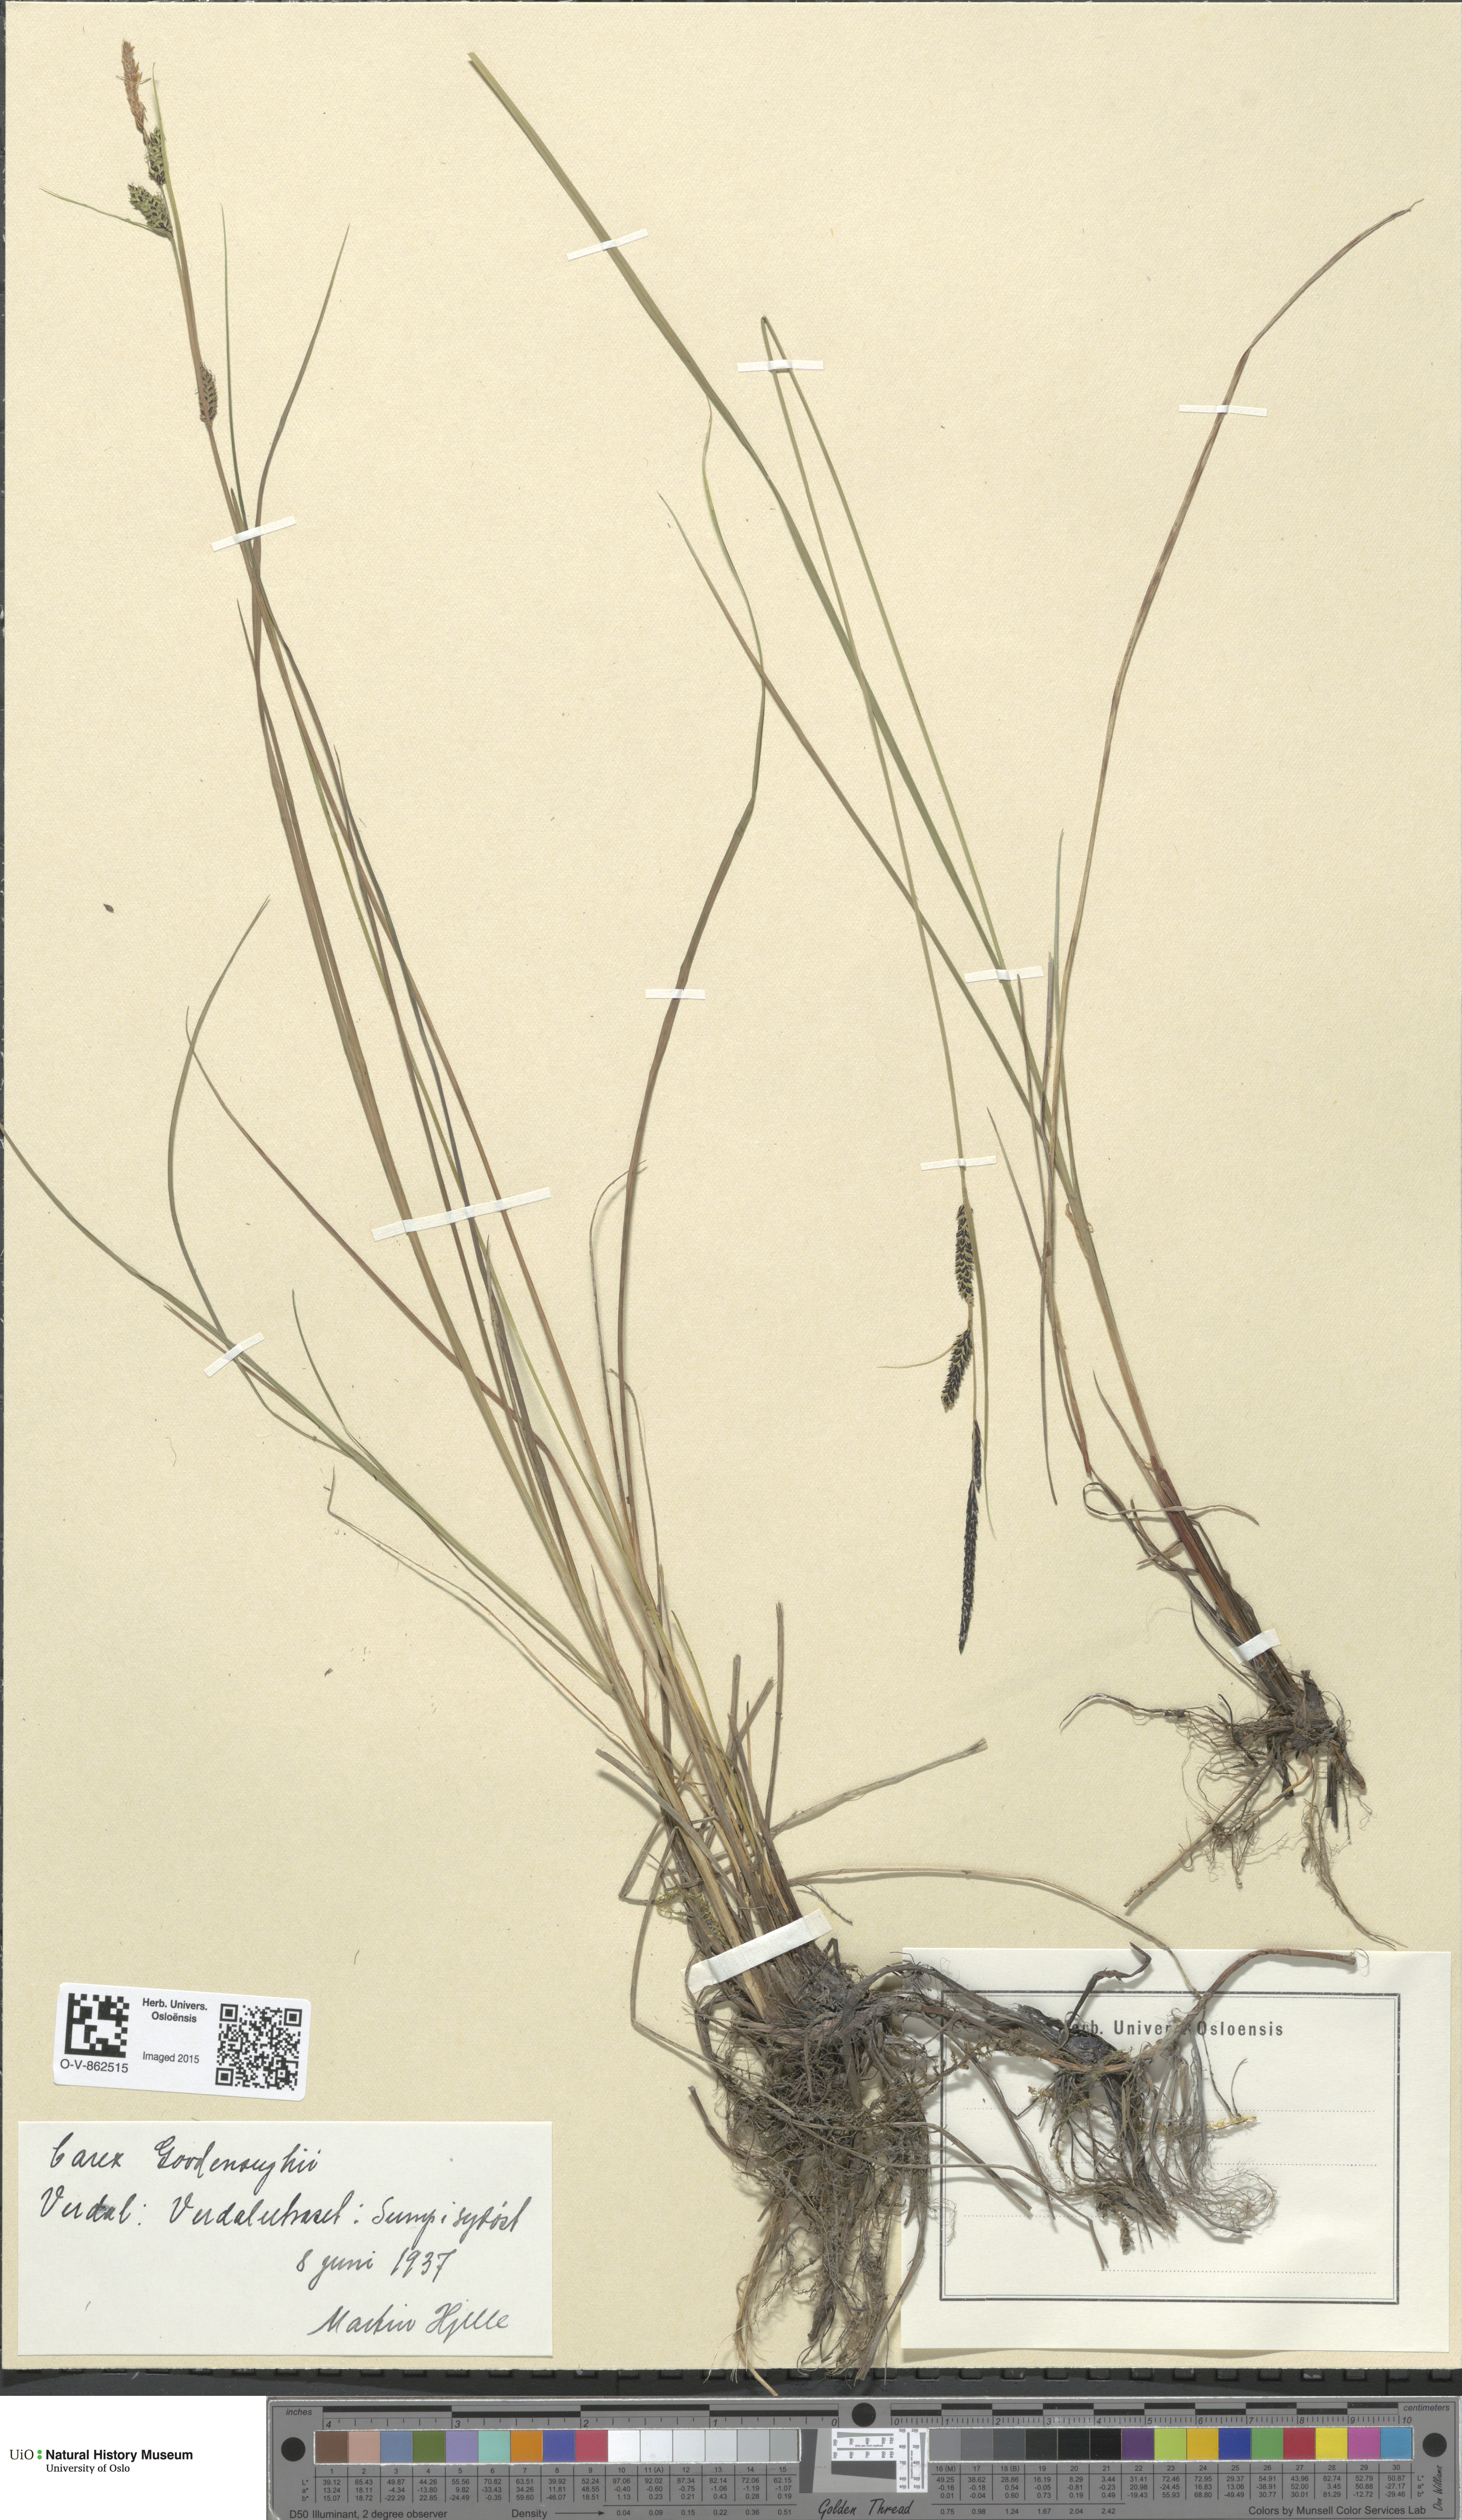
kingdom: Plantae
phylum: Tracheophyta
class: Liliopsida
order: Poales
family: Cyperaceae
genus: Carex
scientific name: Carex nigra
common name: Common sedge
